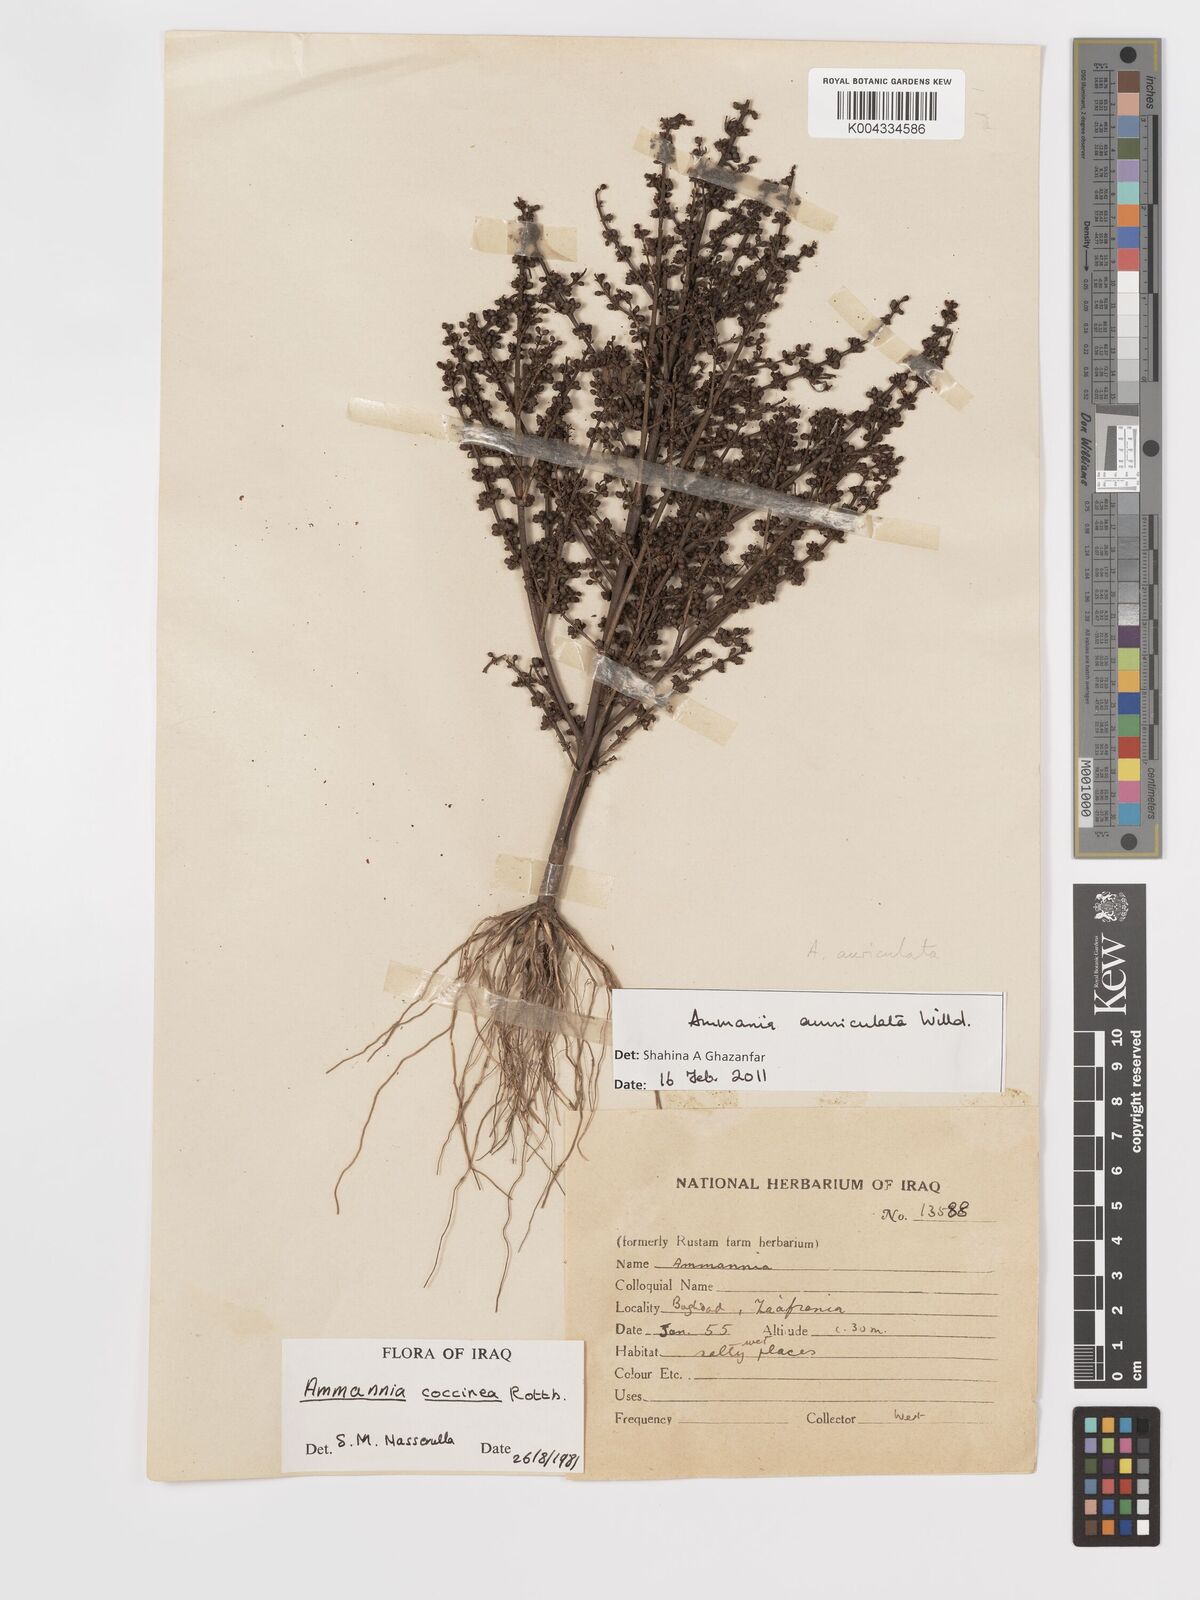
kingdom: Plantae
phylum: Tracheophyta
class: Magnoliopsida
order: Myrtales
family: Lythraceae
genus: Ammannia
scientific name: Ammannia auriculata
